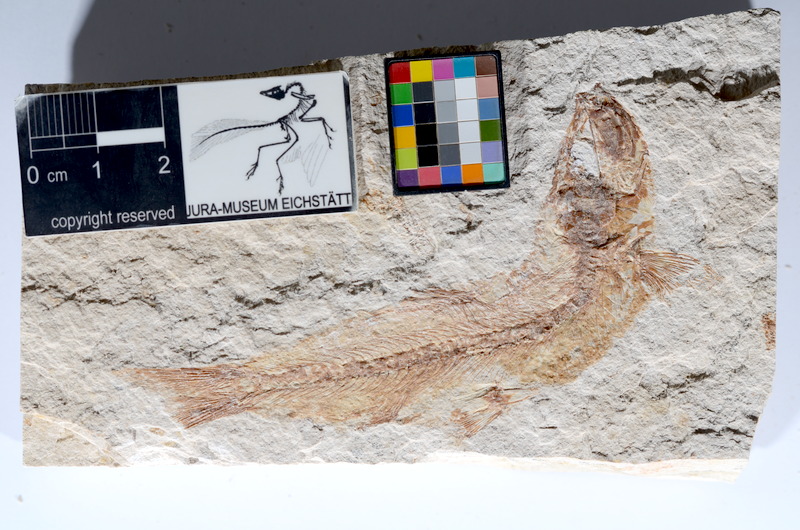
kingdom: Animalia
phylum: Chordata
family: Ascalaboidae
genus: Tharsis
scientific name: Tharsis dubius
